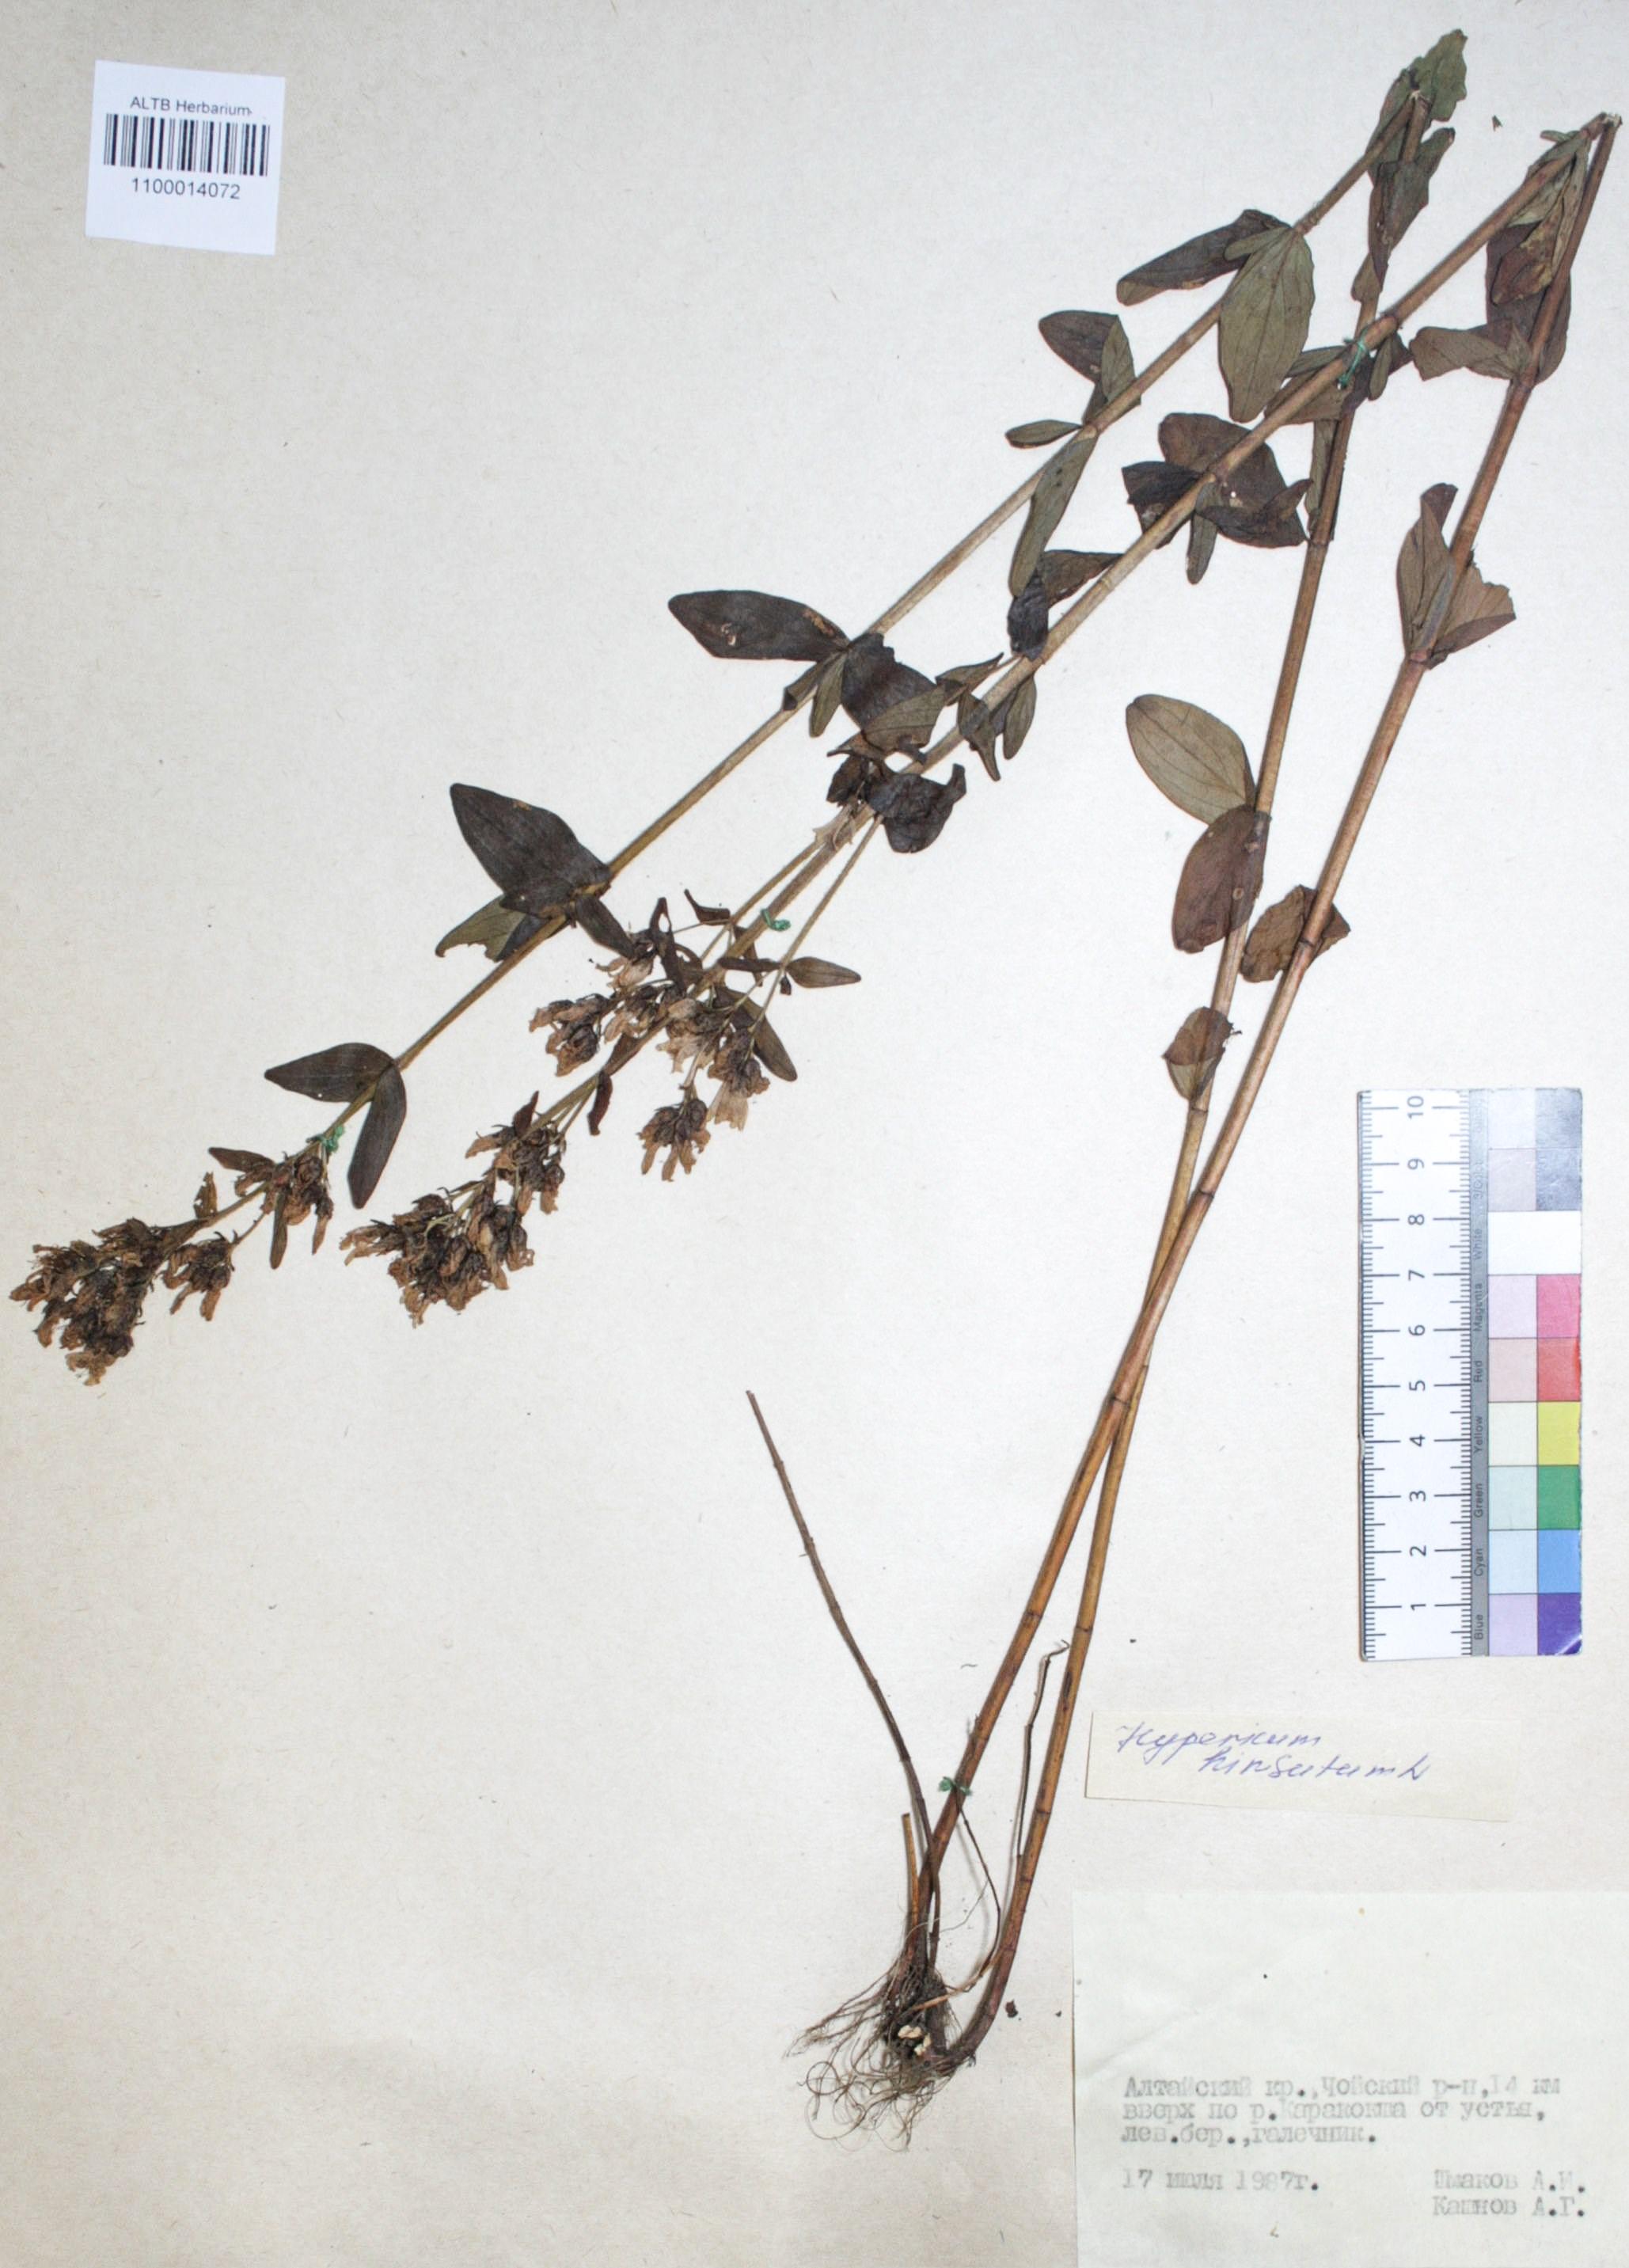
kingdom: Plantae
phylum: Tracheophyta
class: Magnoliopsida
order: Malpighiales
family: Hypericaceae
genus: Hypericum
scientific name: Hypericum hirsutum
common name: Hairy st. john's-wort
